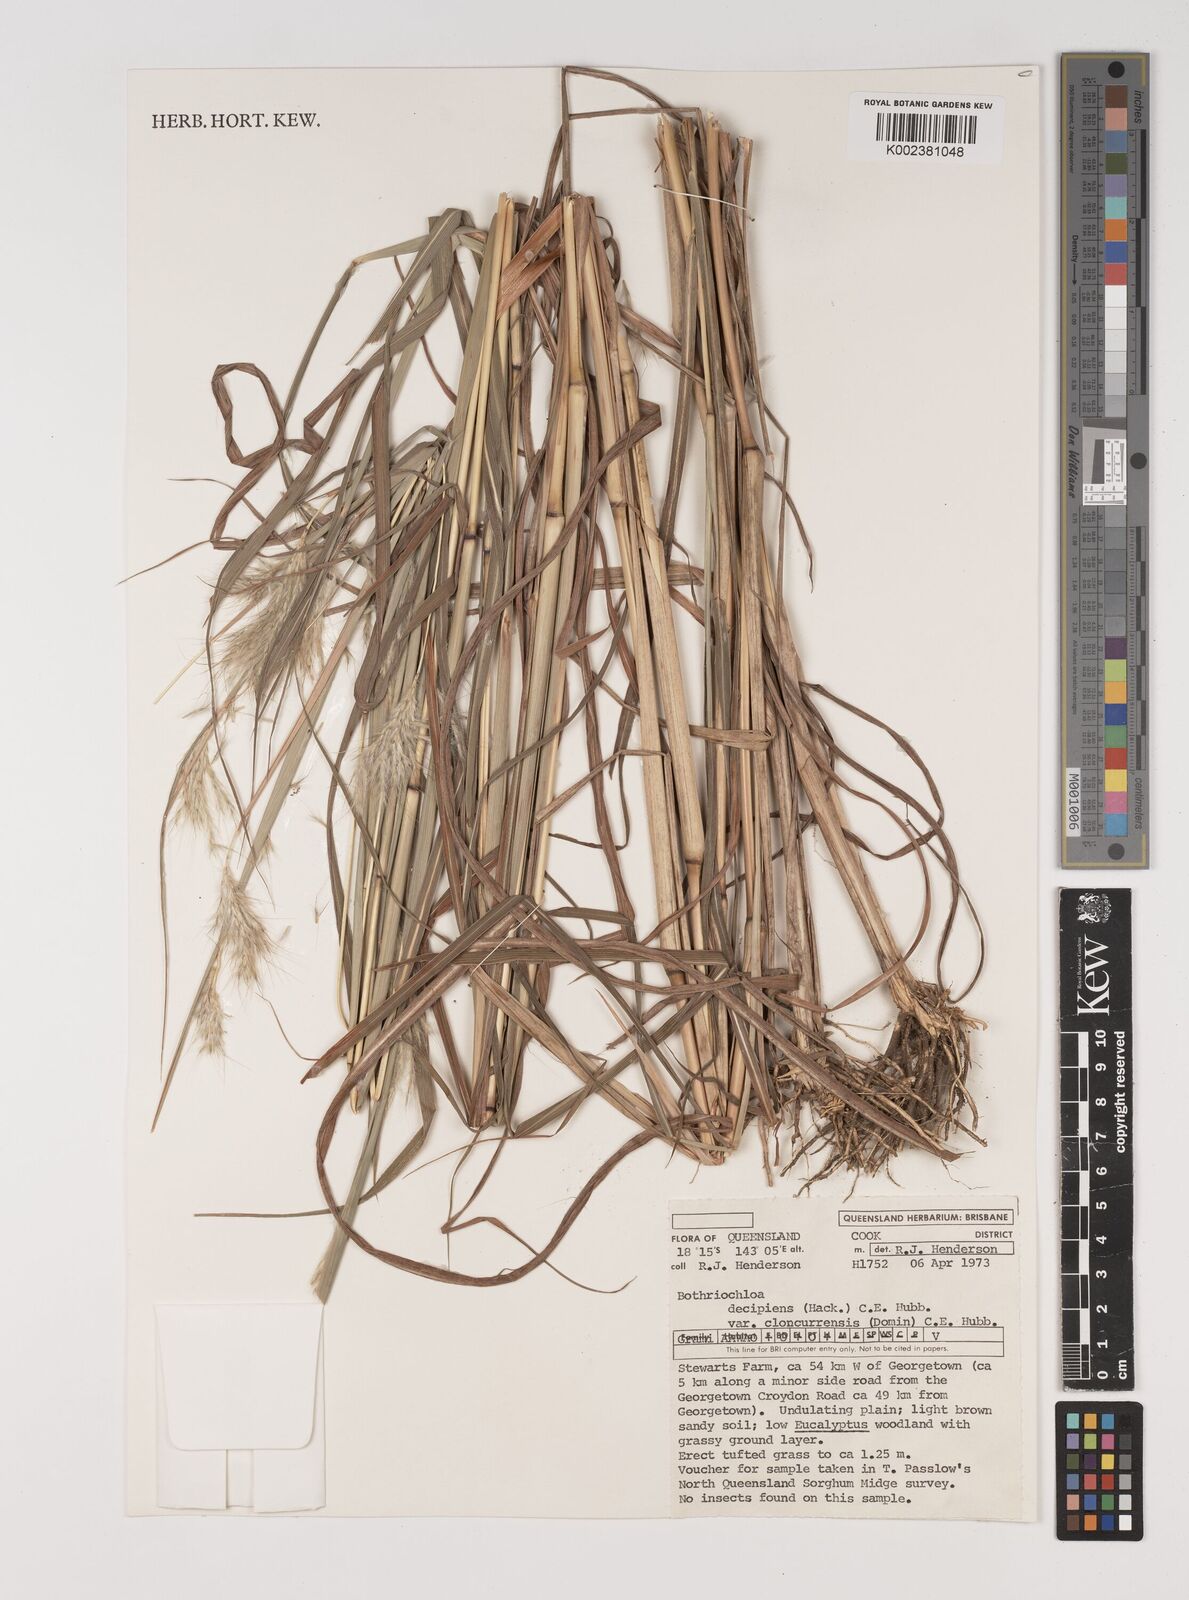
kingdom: Plantae
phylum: Tracheophyta
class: Liliopsida
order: Poales
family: Poaceae
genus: Bothriochloa
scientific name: Bothriochloa decipiens
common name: Pitted-bluegrass
